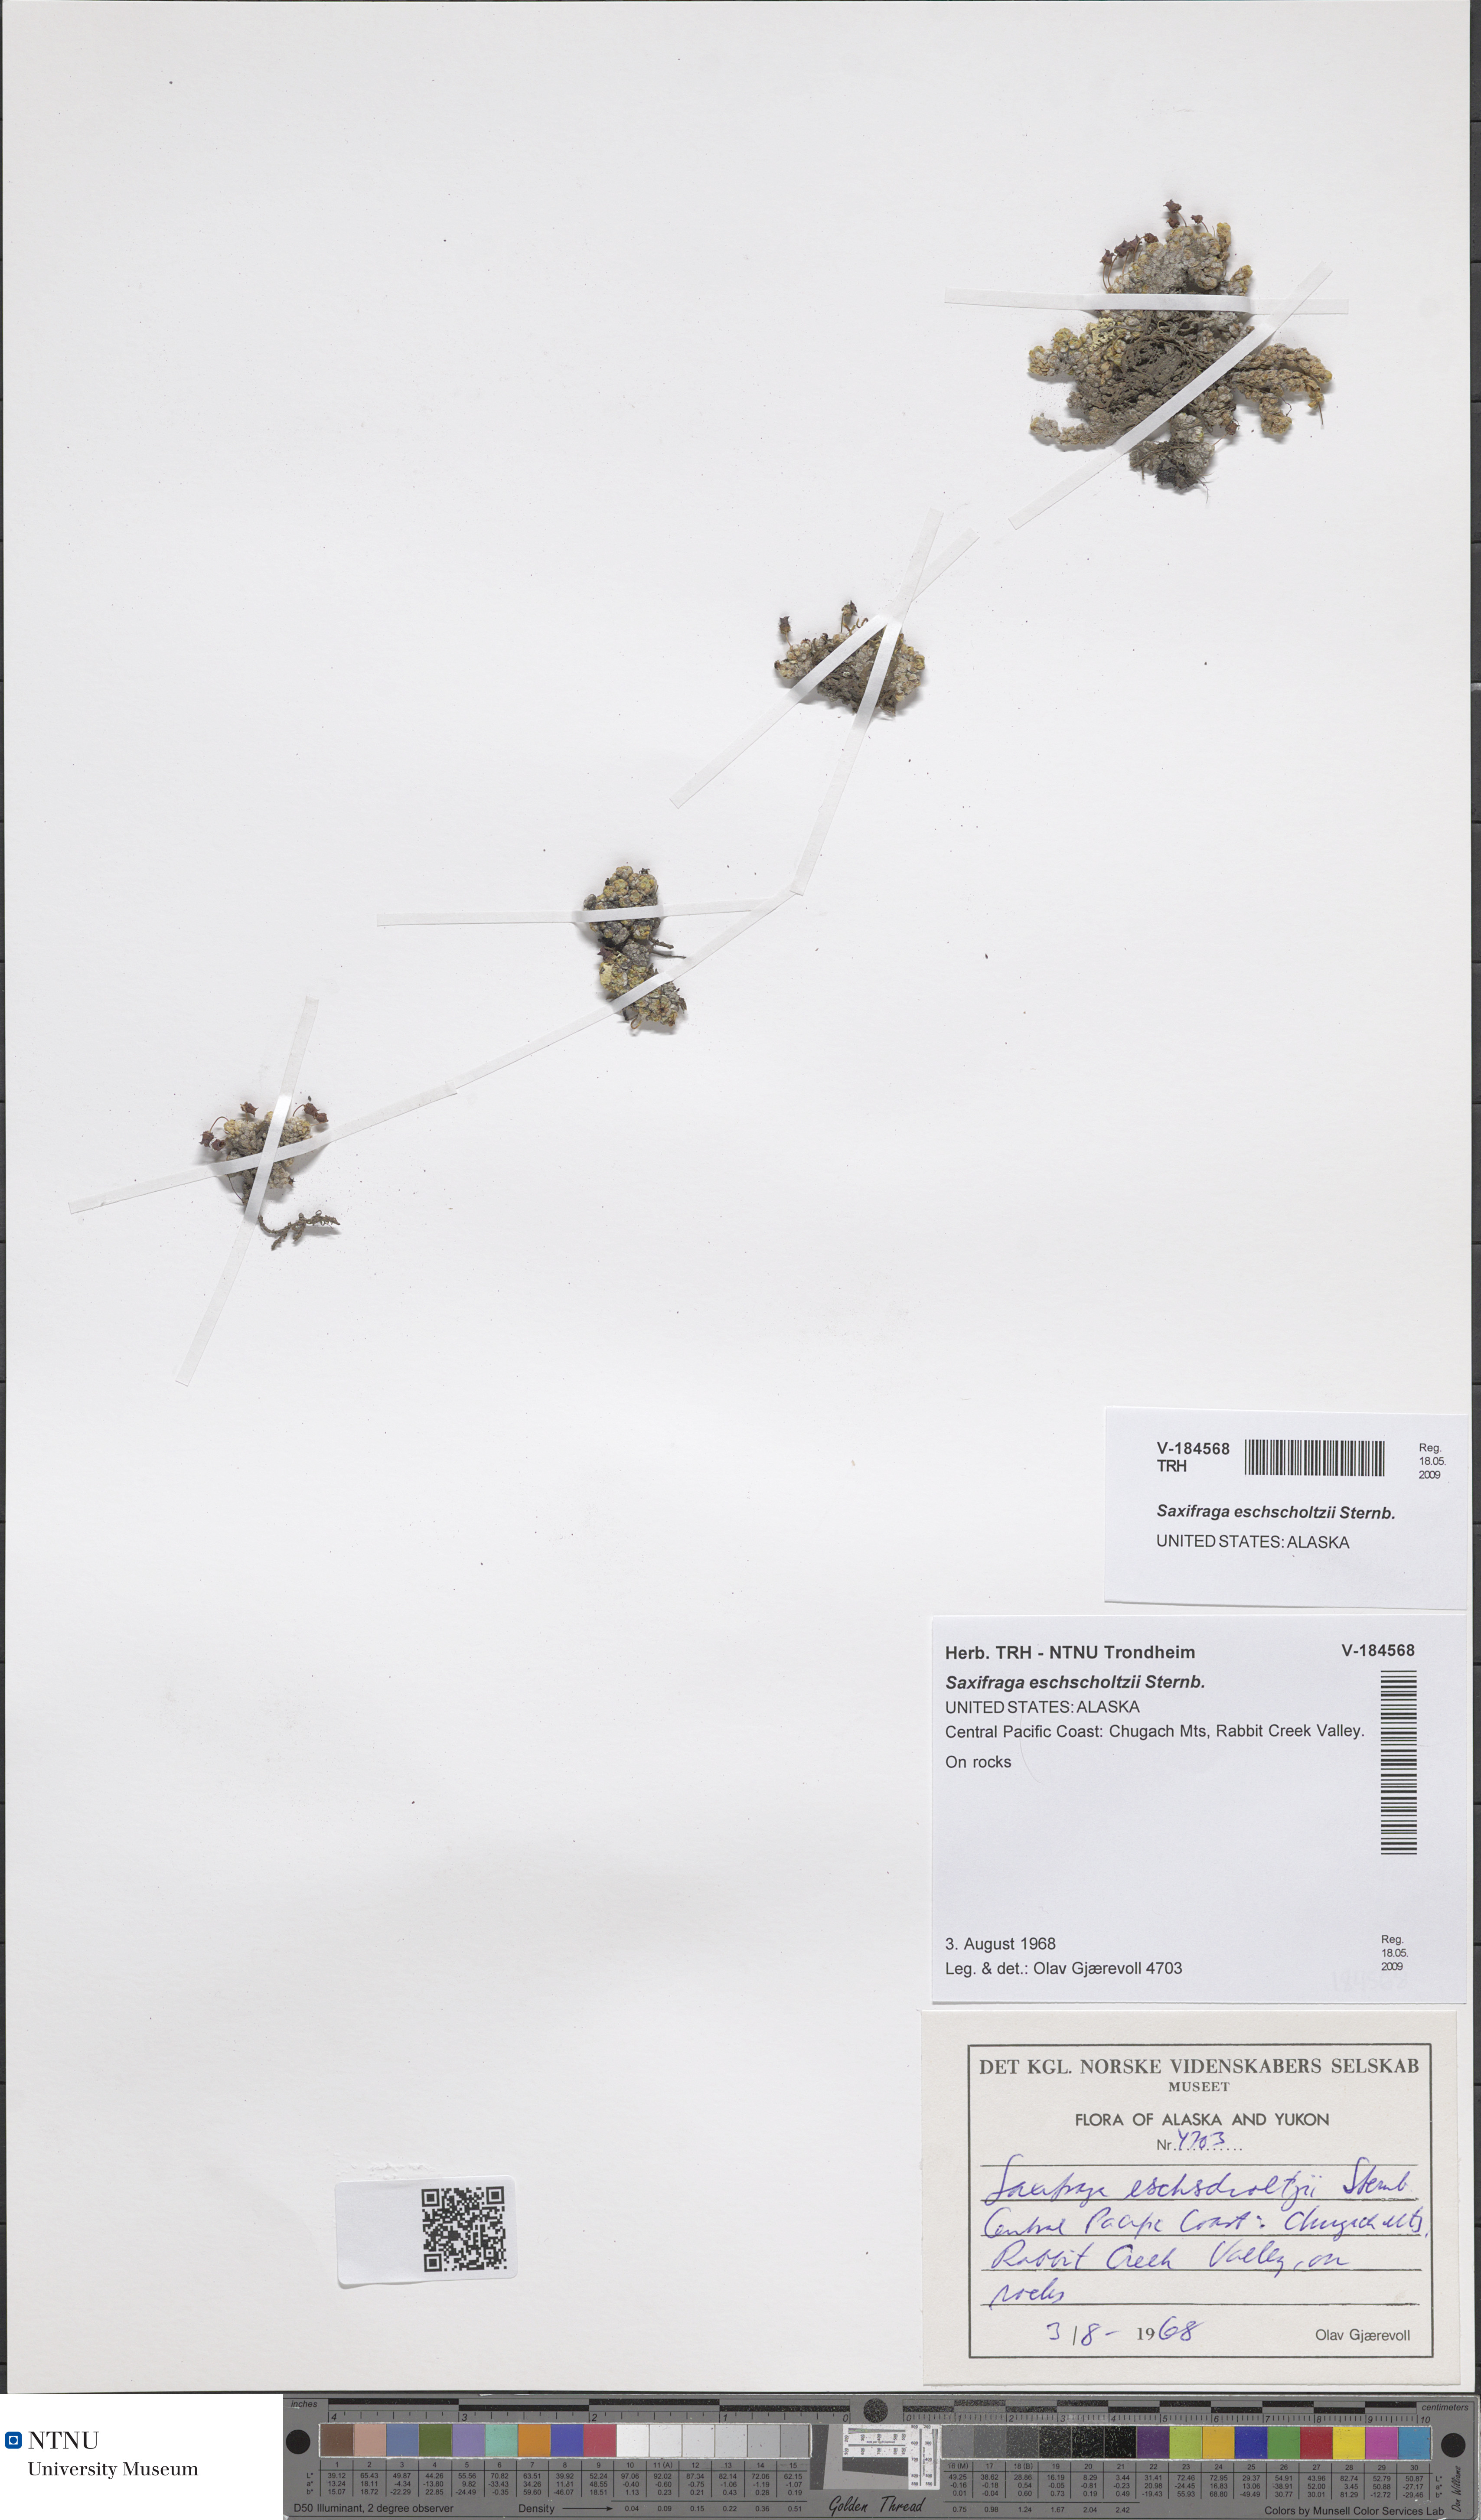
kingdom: Plantae
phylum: Tracheophyta
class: Magnoliopsida
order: Saxifragales
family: Saxifragaceae
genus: Saxifraga
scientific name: Saxifraga eschscholtzii
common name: Eschscholtz's saxifrage
